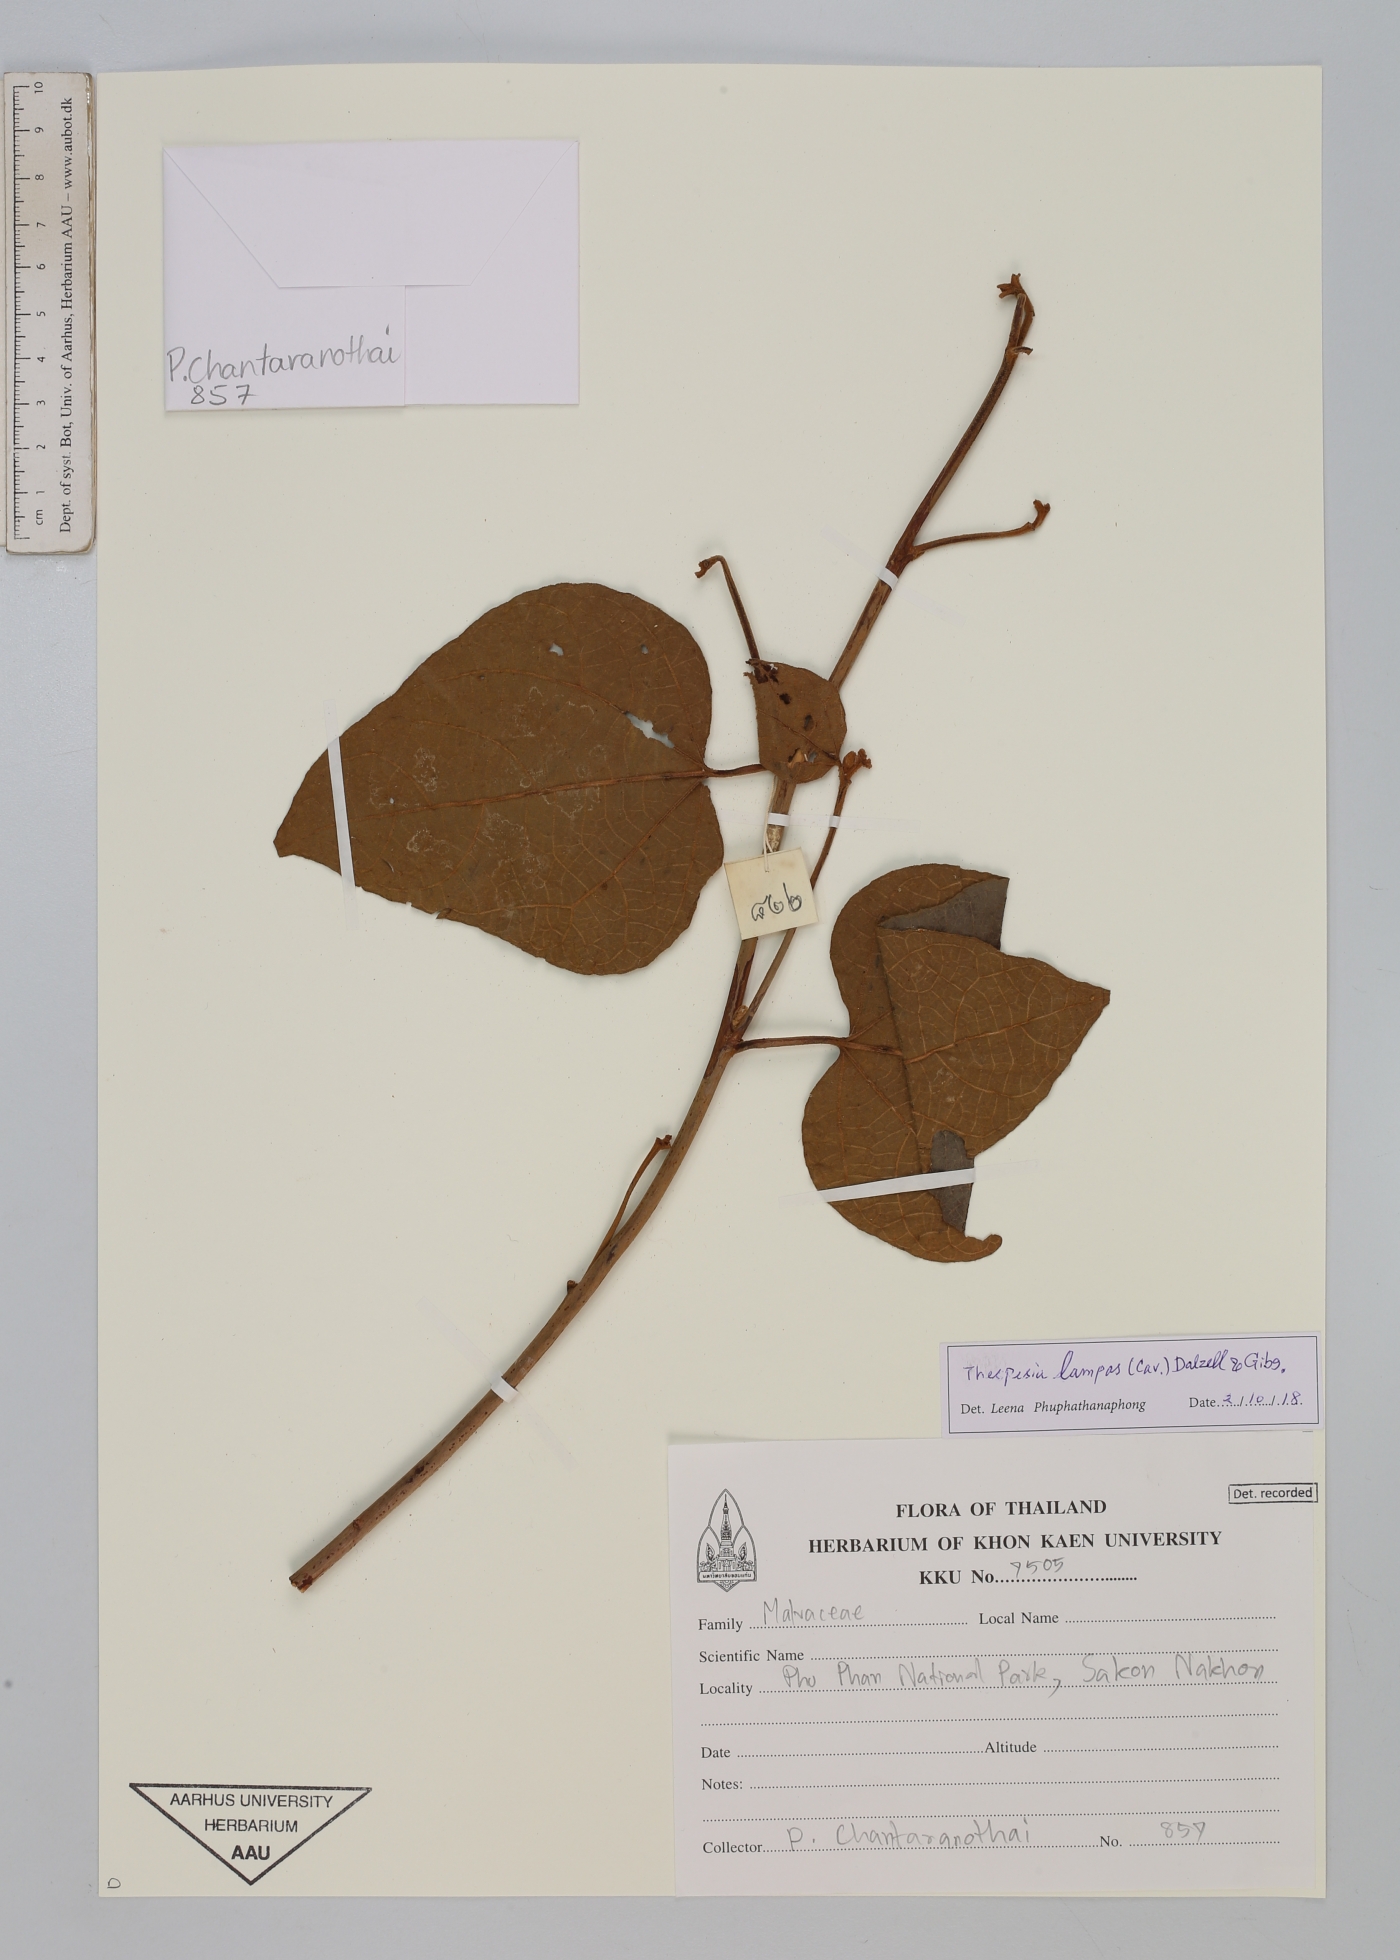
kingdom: Plantae
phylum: Tracheophyta
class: Magnoliopsida
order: Malvales
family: Malvaceae
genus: Thespesia
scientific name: Thespesia lampas
